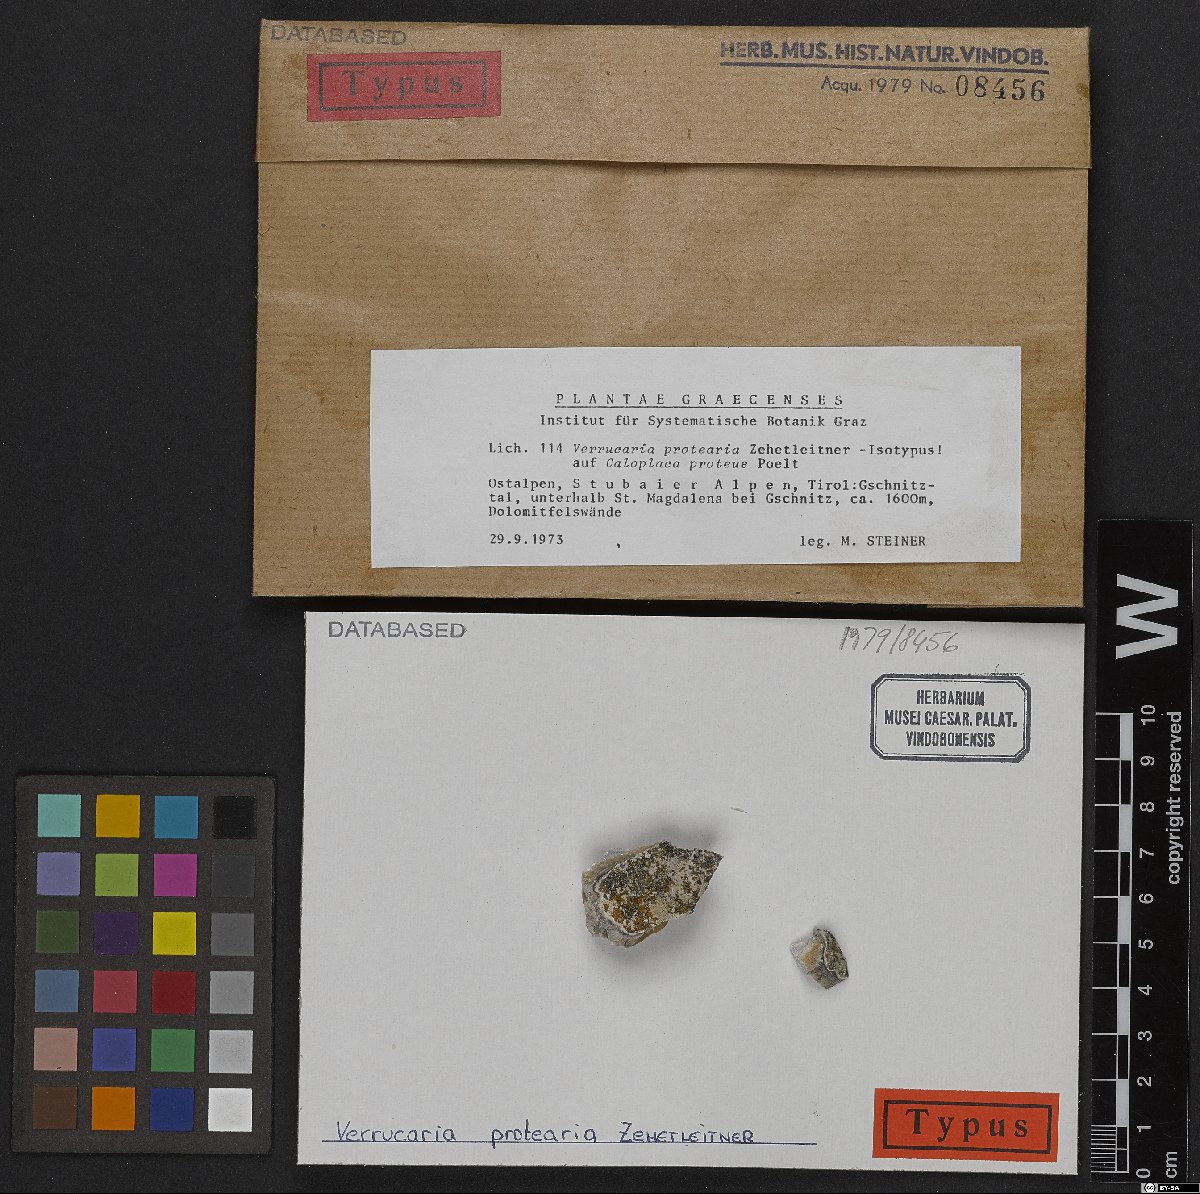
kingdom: Fungi
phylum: Ascomycota
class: Eurotiomycetes
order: Verrucariales
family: Verrucariaceae
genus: Verrucula
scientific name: Verrucula protearia
